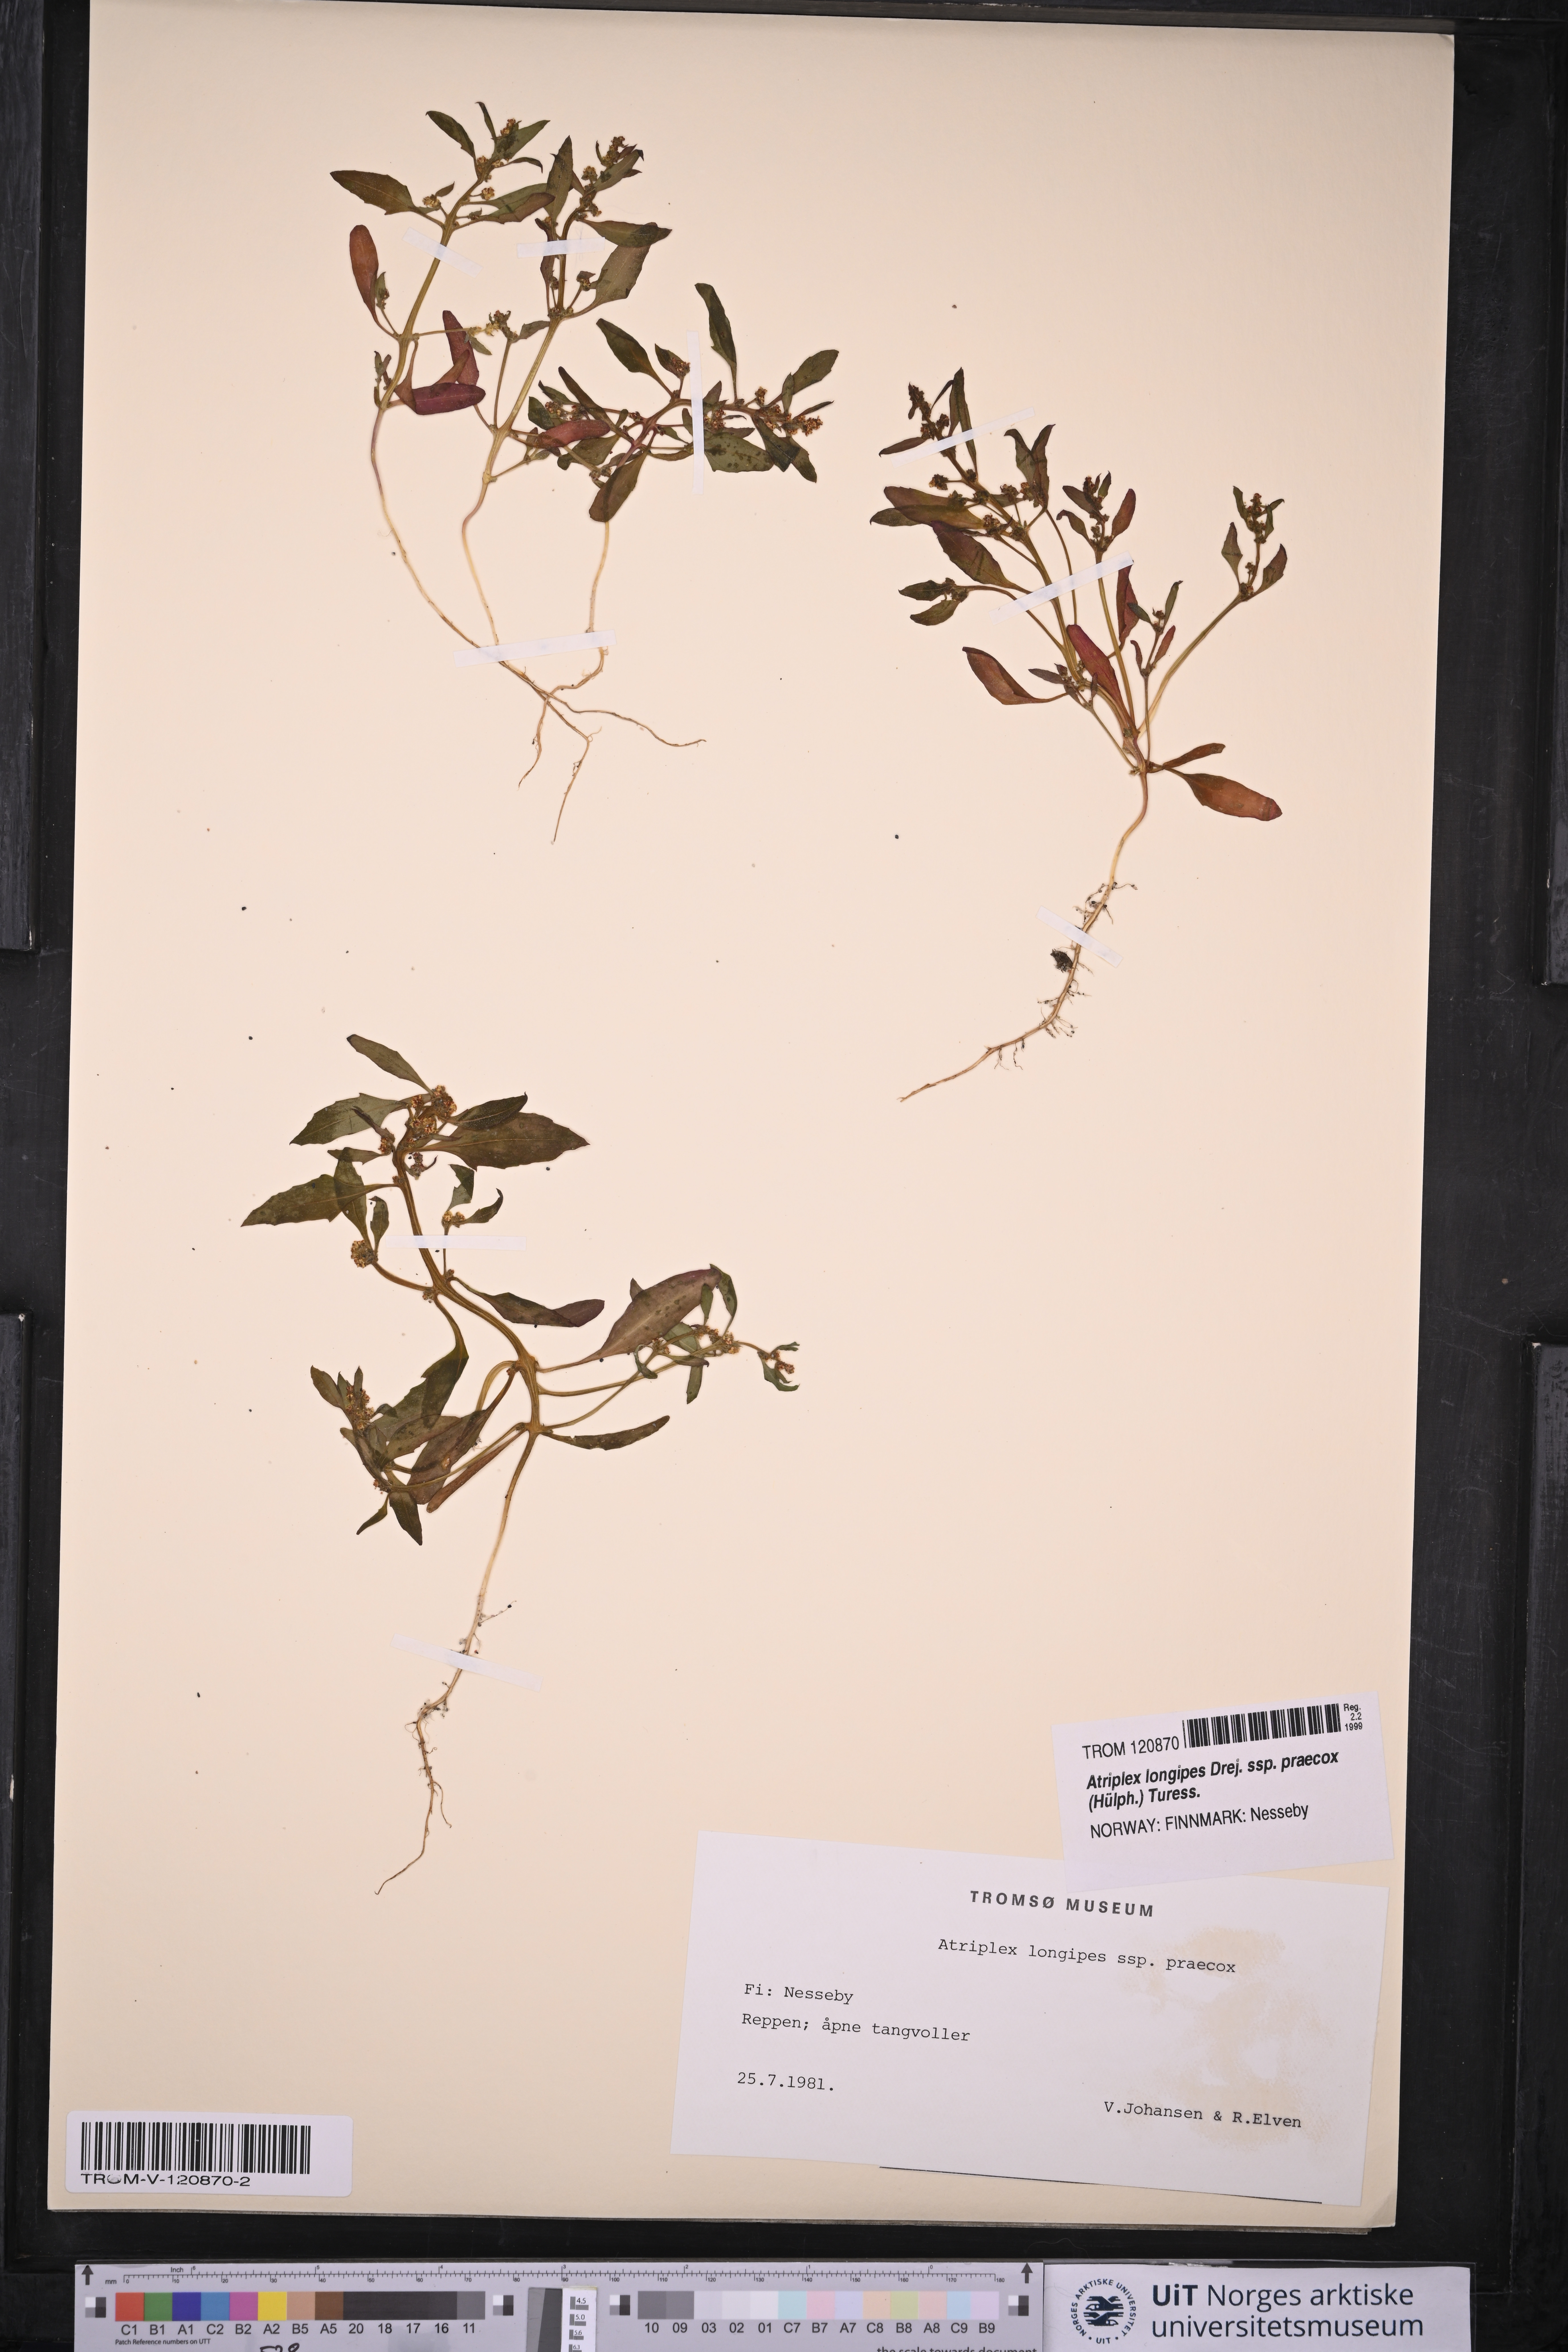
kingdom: Plantae
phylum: Tracheophyta
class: Magnoliopsida
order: Caryophyllales
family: Amaranthaceae
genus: Atriplex
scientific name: Atriplex praecox
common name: Early orache
